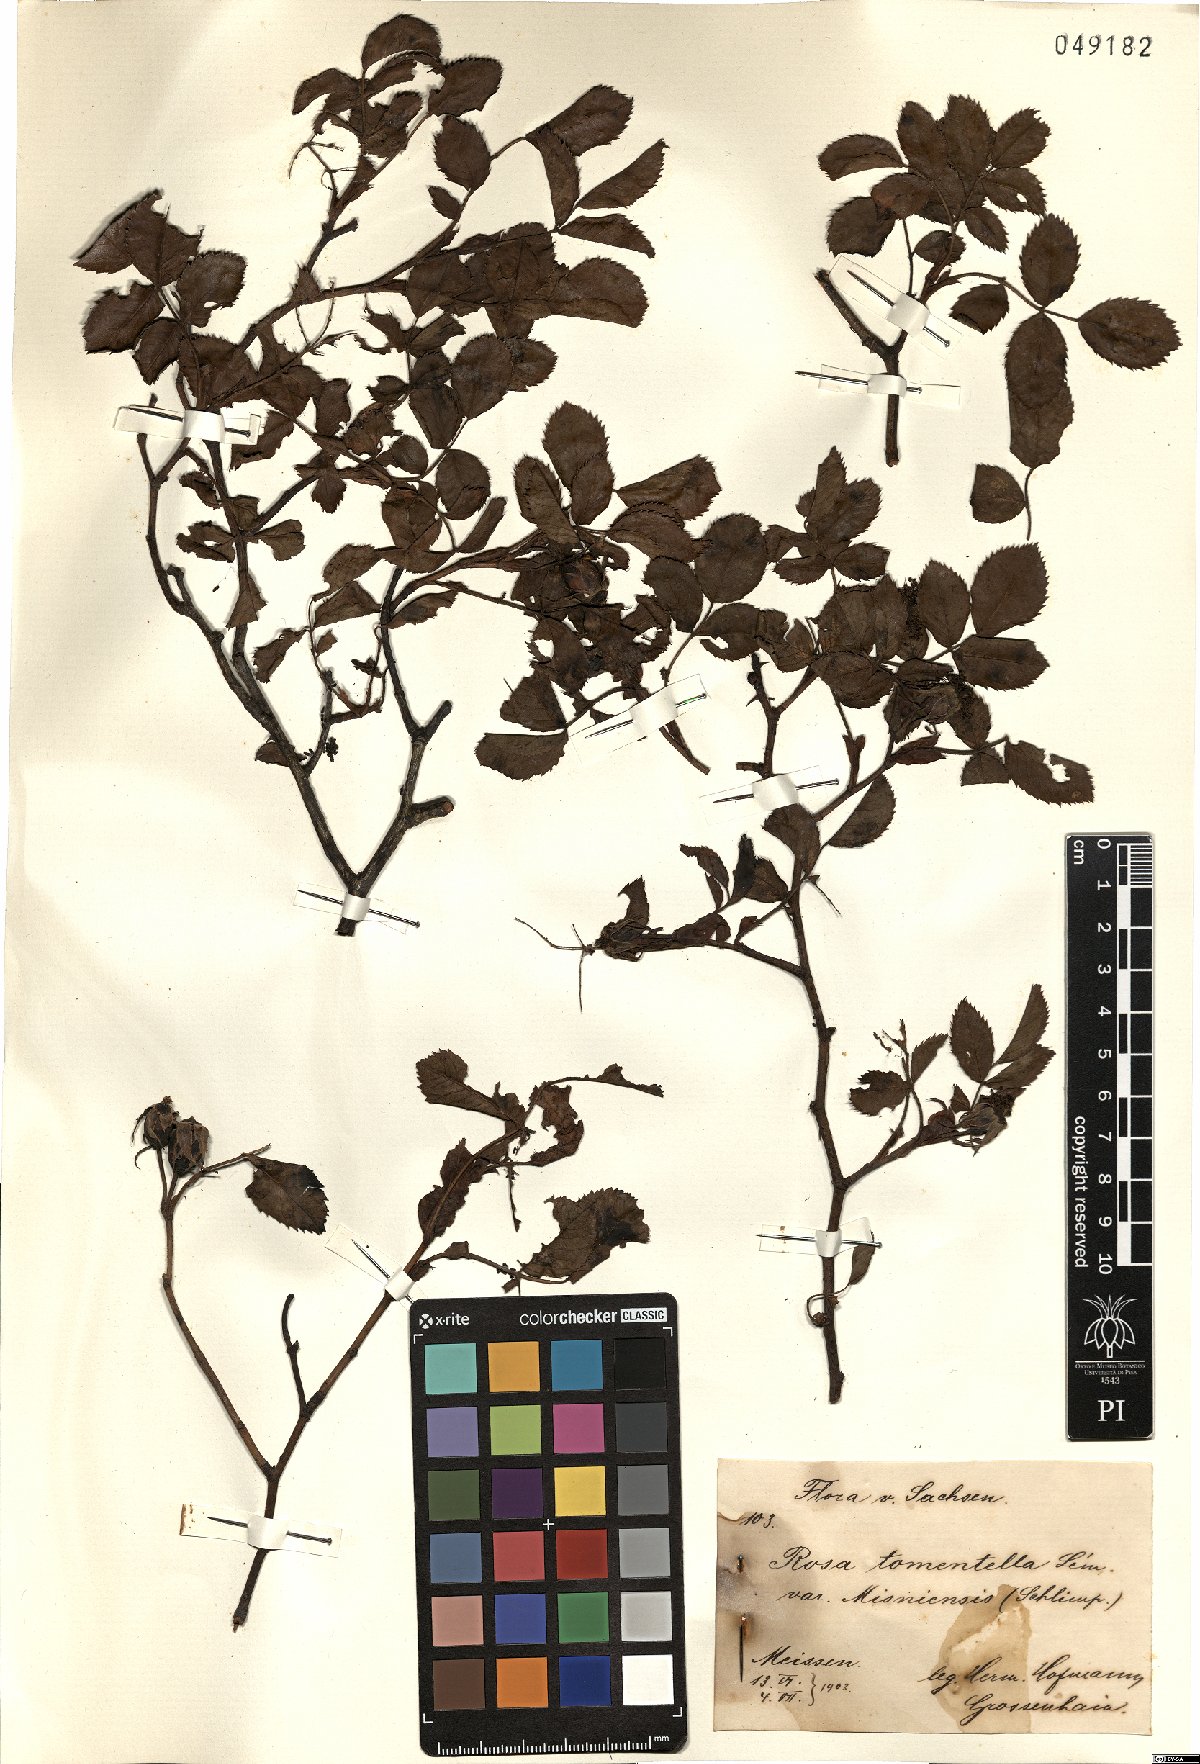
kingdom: Plantae
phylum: Tracheophyta
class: Magnoliopsida
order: Rosales
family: Rosaceae
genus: Rosa
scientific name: Rosa balsamica
